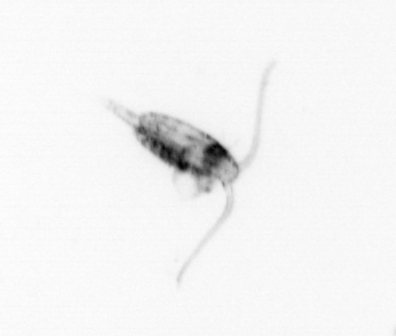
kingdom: Animalia
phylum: Arthropoda
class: Copepoda
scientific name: Copepoda
